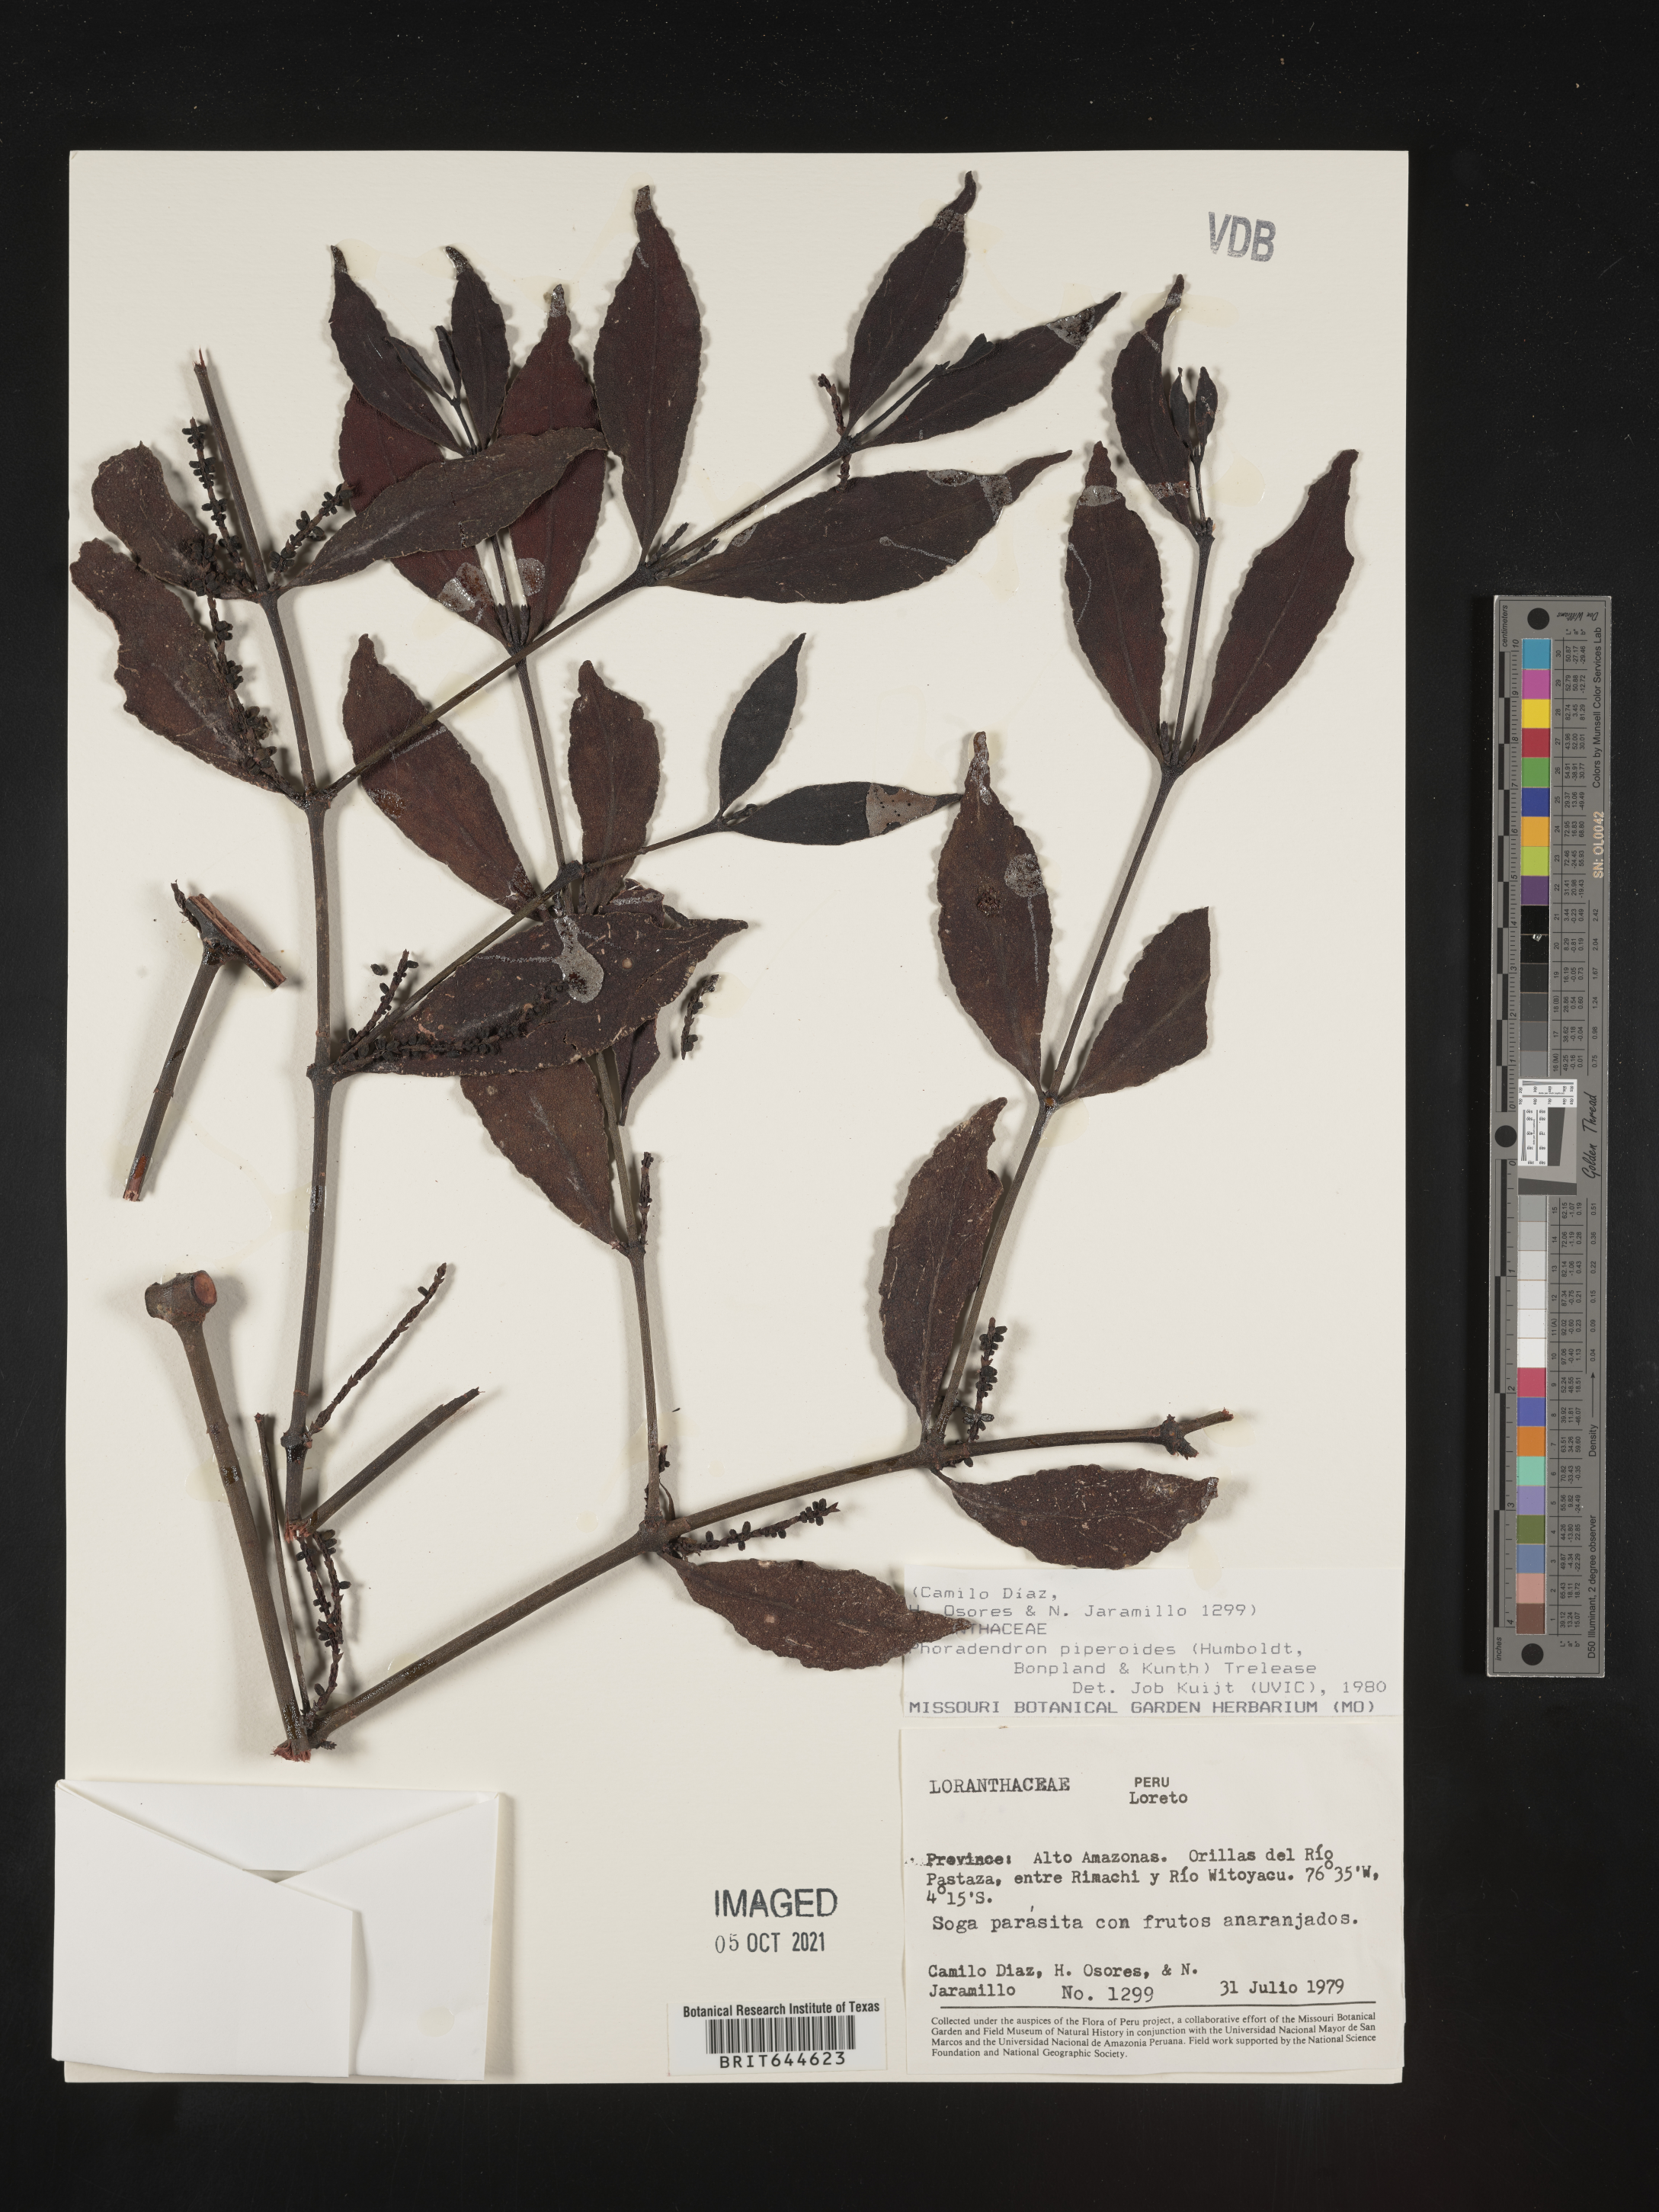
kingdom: Plantae
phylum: Tracheophyta
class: Magnoliopsida
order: Santalales
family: Viscaceae
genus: Phoradendron
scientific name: Phoradendron
